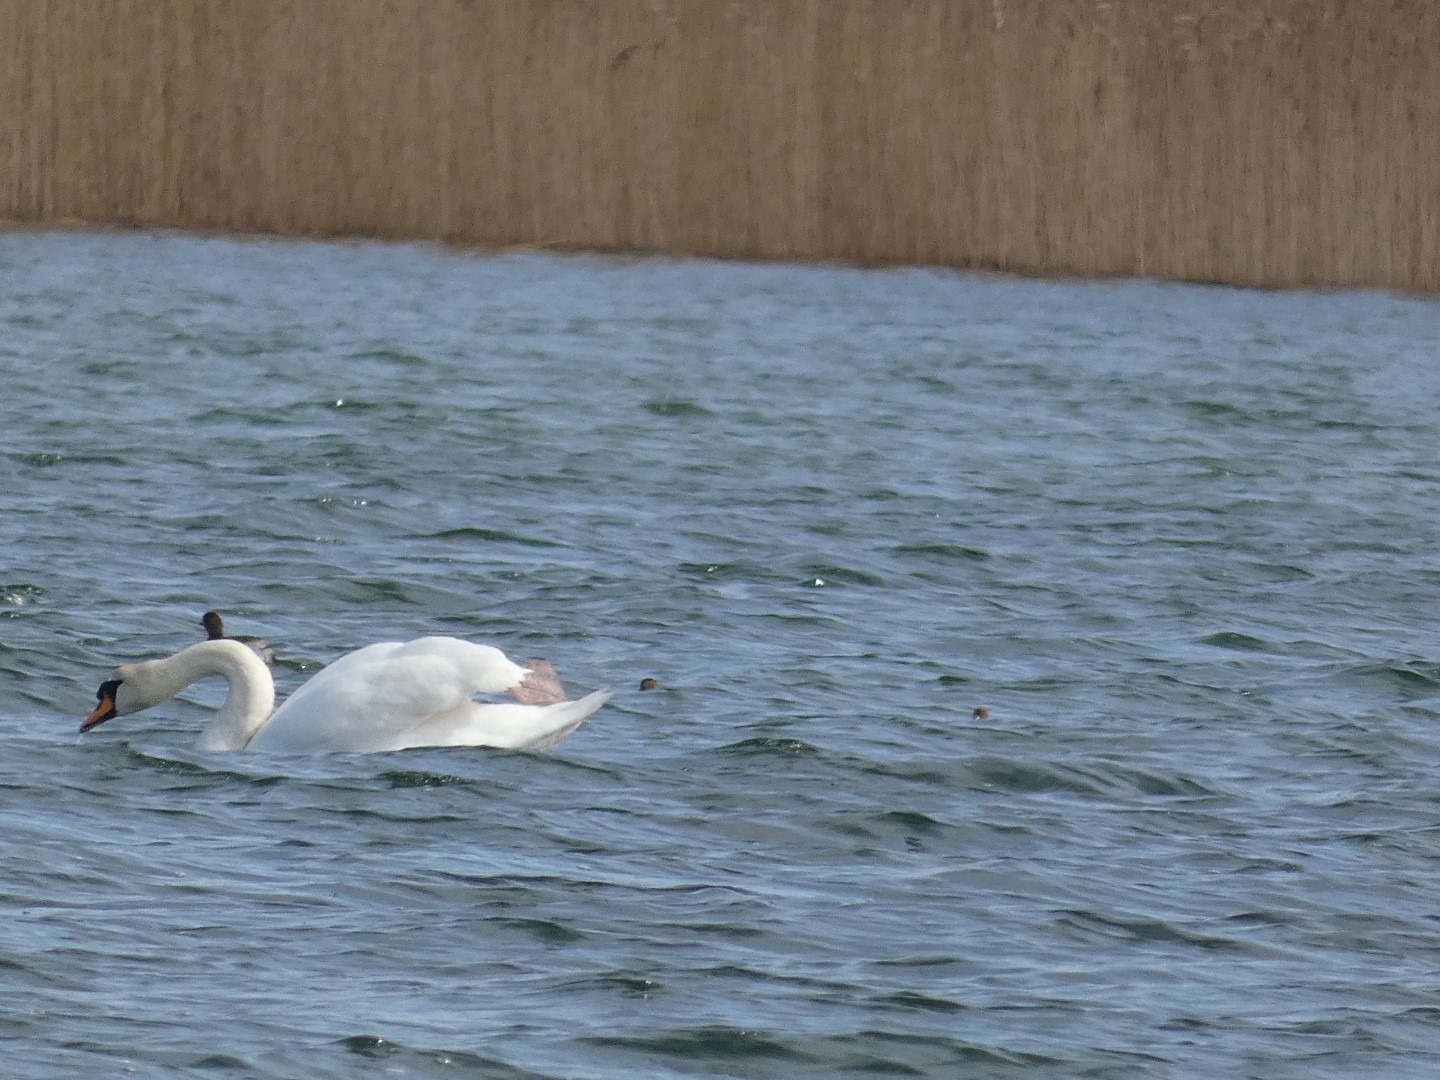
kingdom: Animalia
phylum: Chordata
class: Aves
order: Podicipediformes
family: Podicipedidae
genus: Tachybaptus
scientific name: Tachybaptus ruficollis
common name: Lille lappedykker
